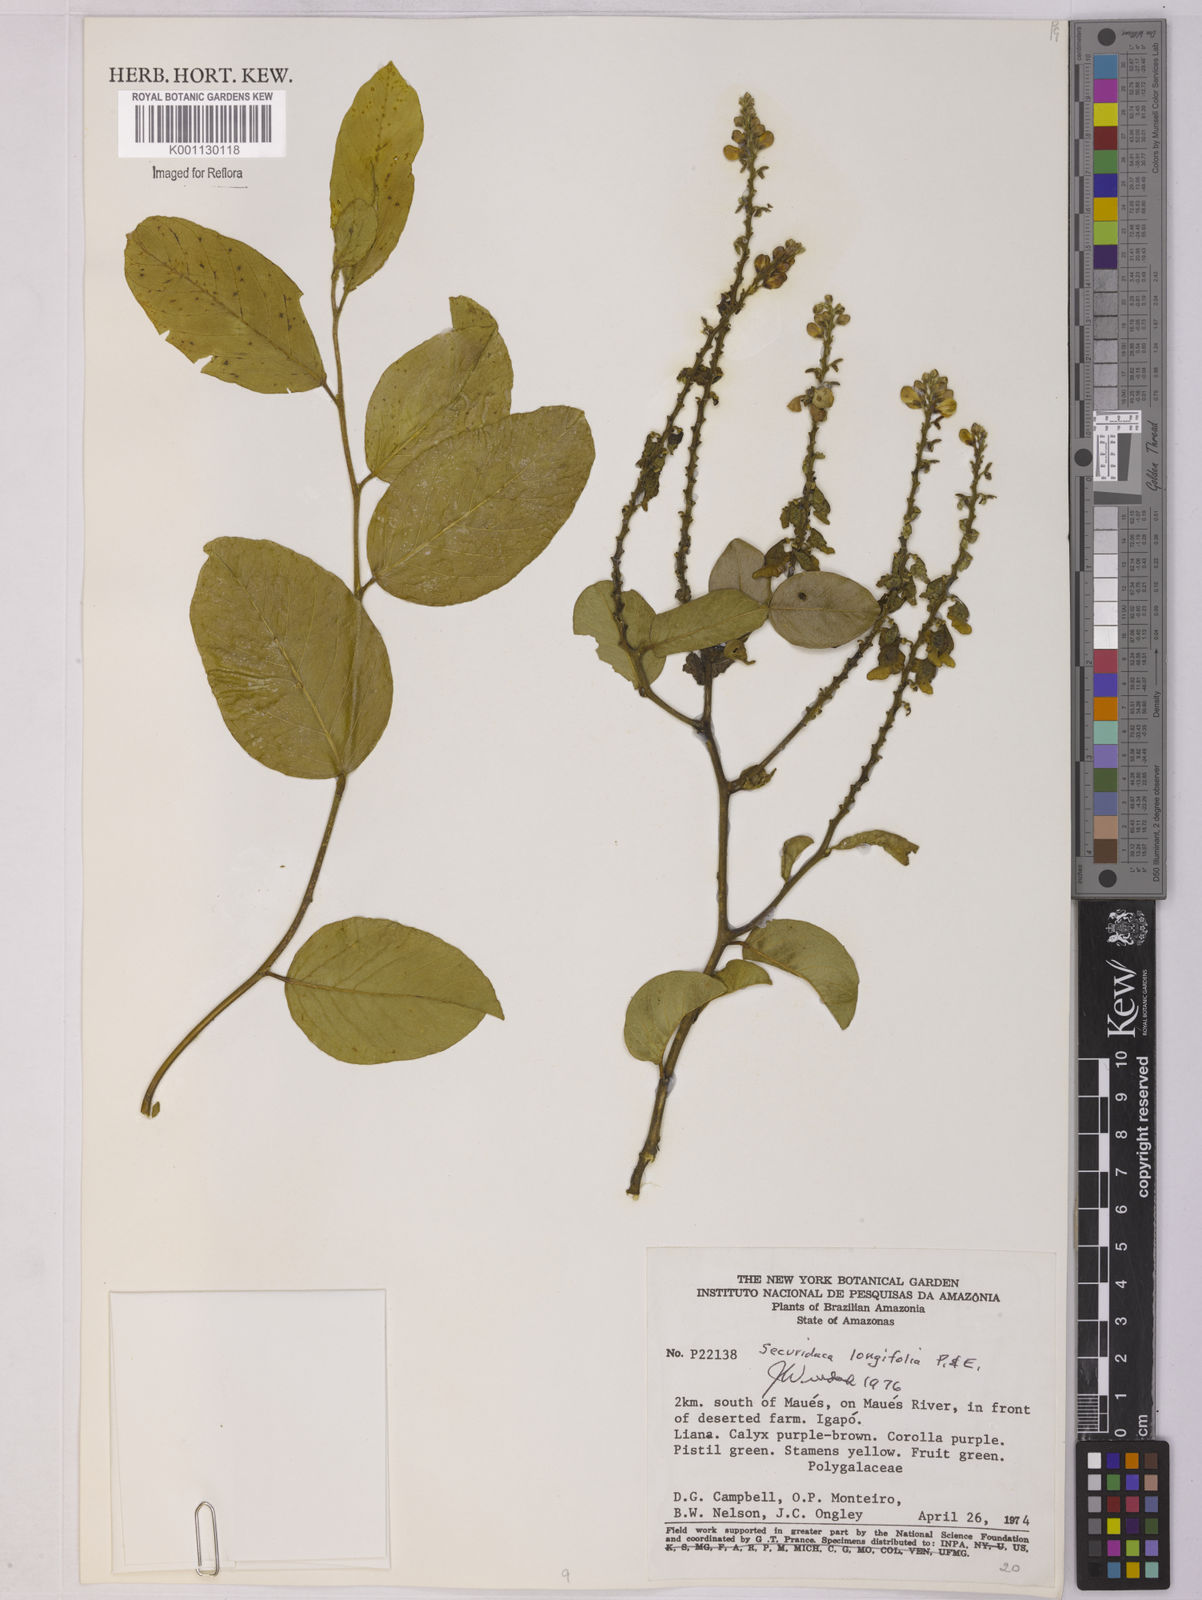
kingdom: Plantae
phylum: Tracheophyta
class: Magnoliopsida
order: Fabales
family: Polygalaceae
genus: Securidaca
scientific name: Securidaca longifolia
